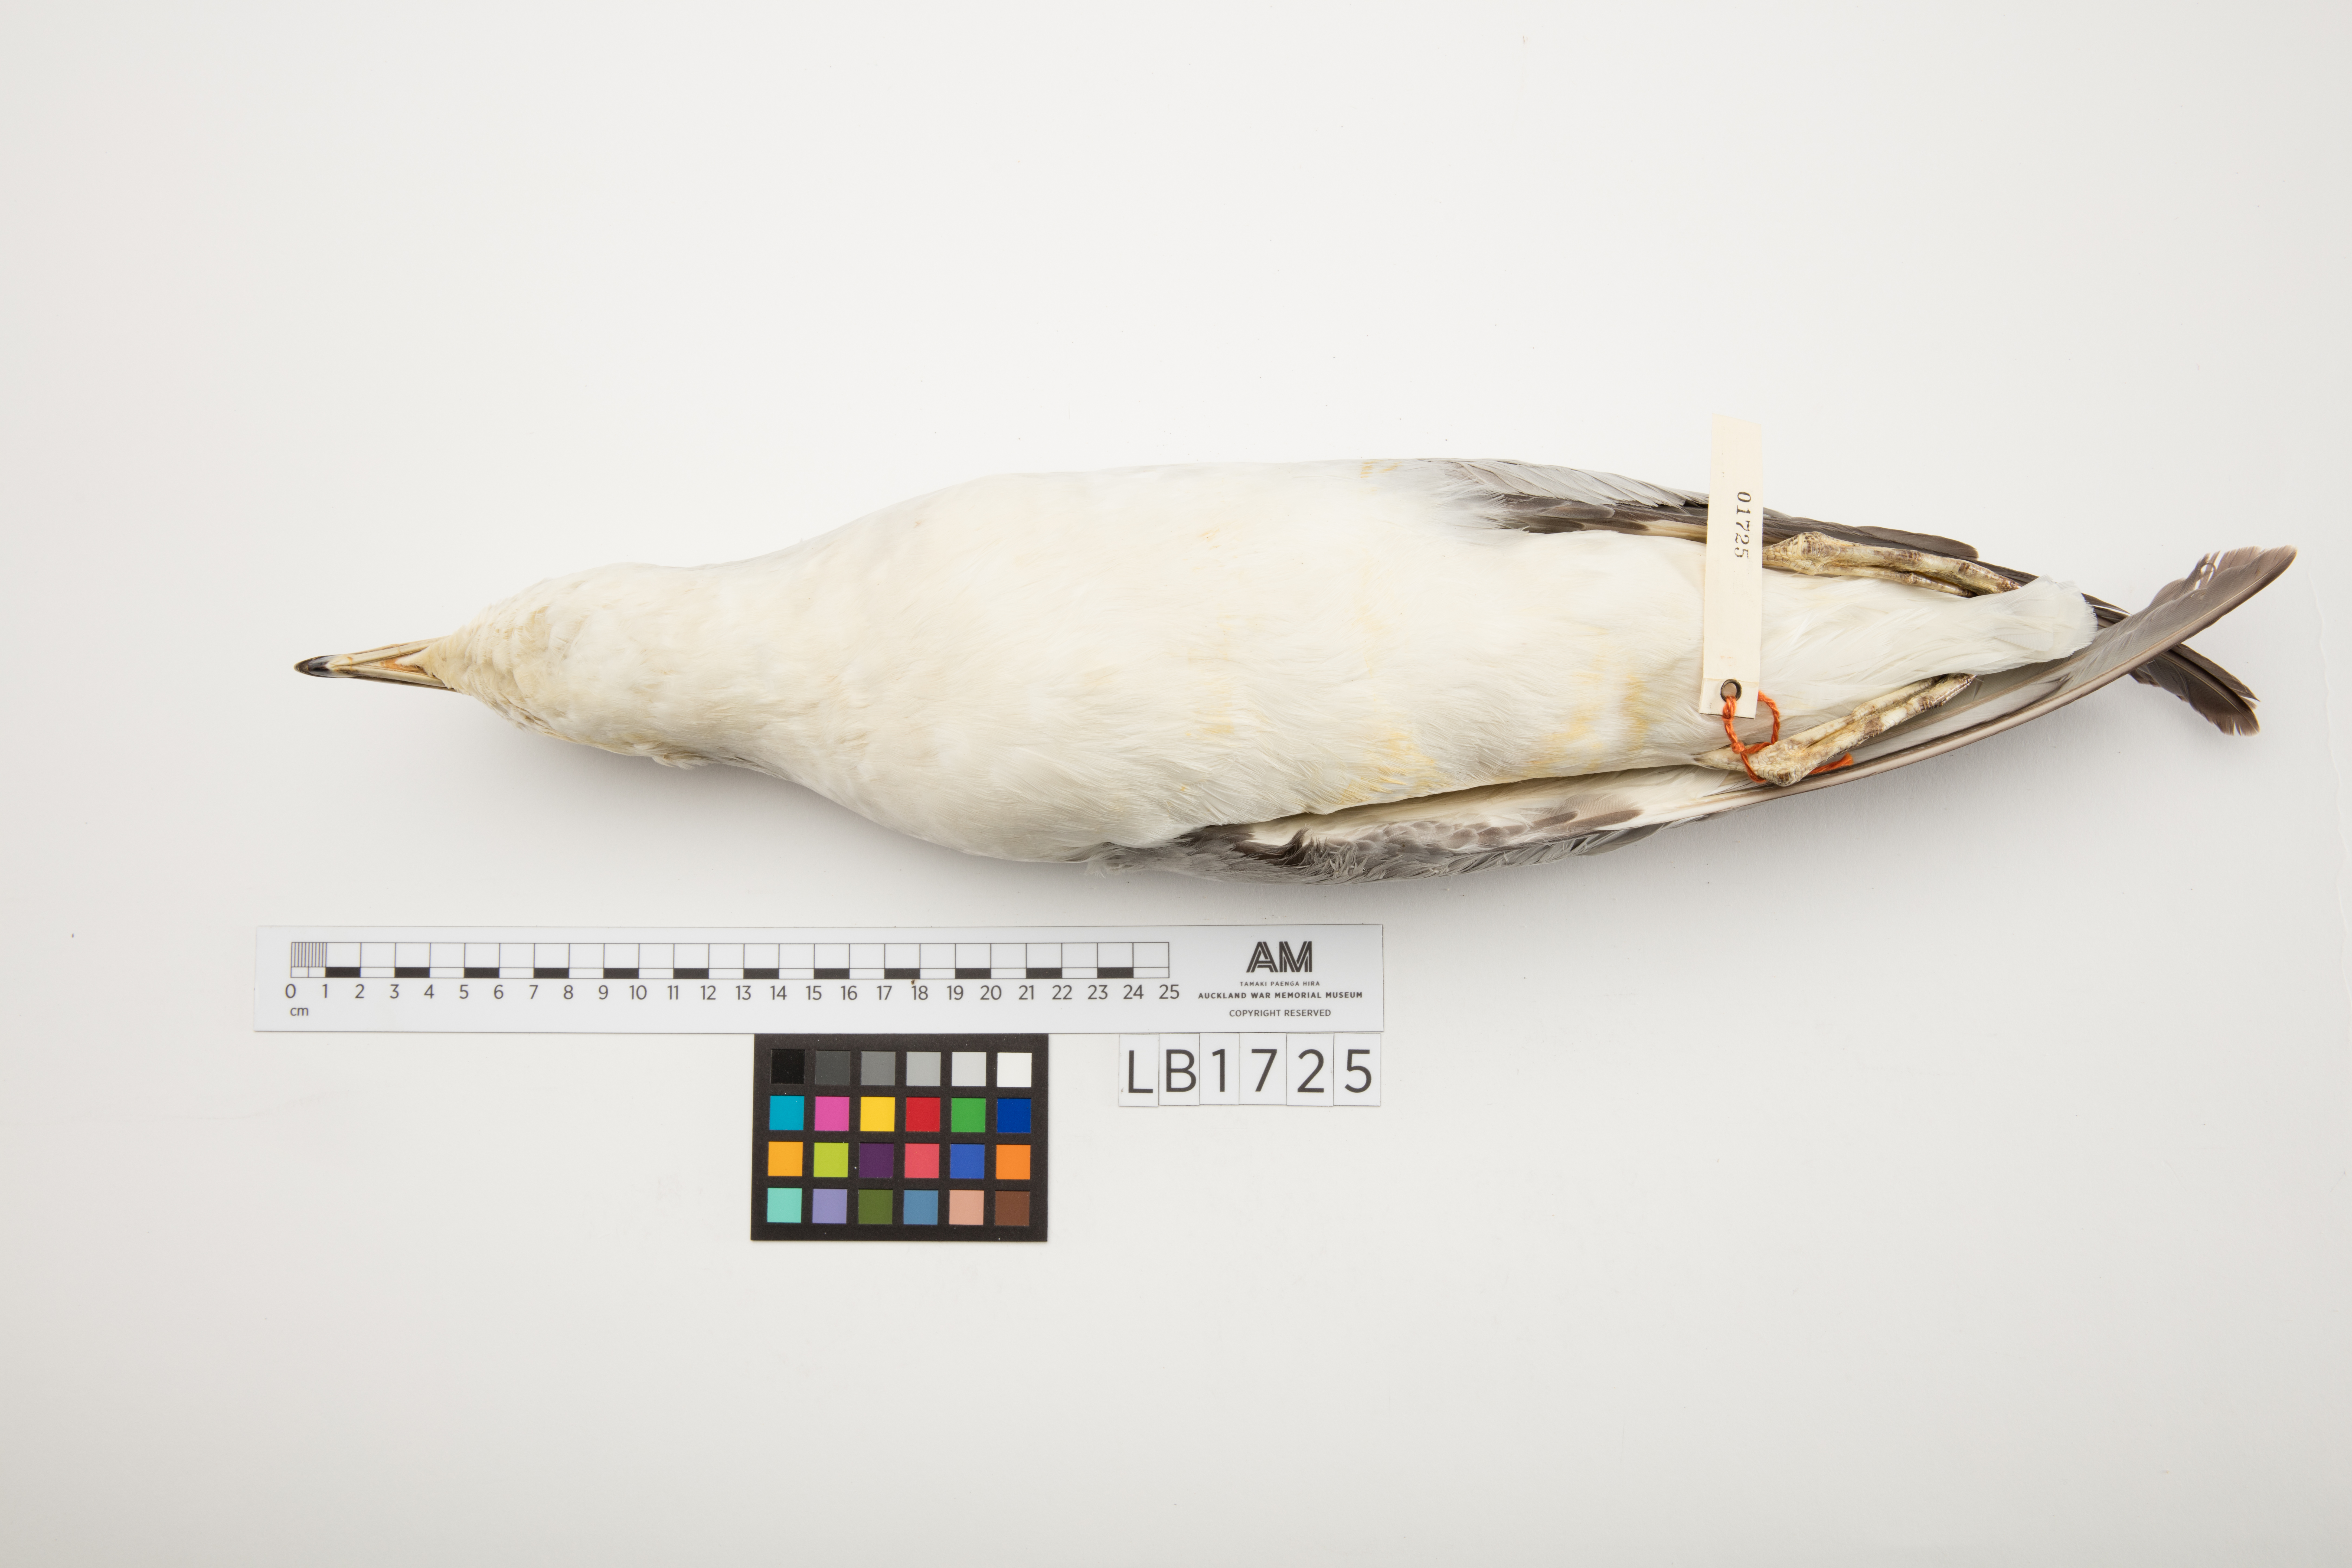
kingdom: Animalia
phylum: Chordata
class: Aves
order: Procellariiformes
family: Procellariidae
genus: Fulmarus
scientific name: Fulmarus glacialoides
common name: Southern fulmar
